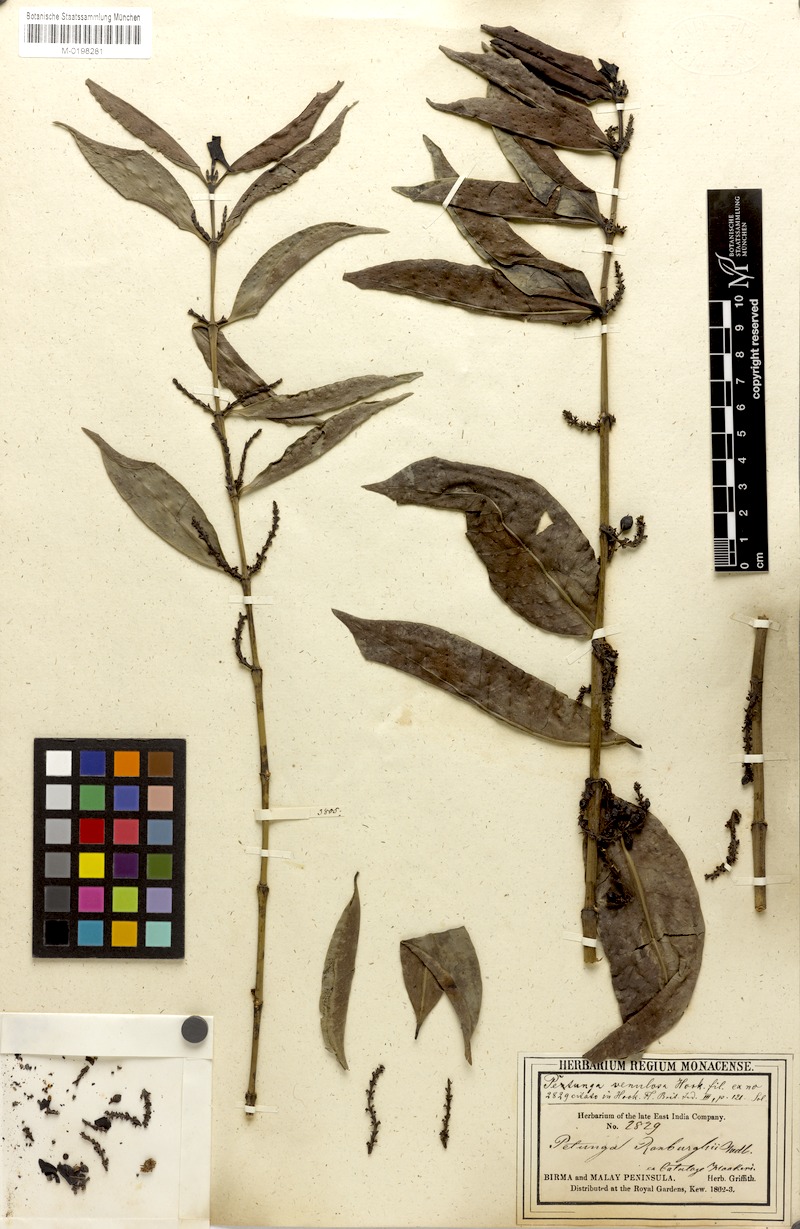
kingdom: Plantae
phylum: Tracheophyta
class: Magnoliopsida
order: Gentianales
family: Rubiaceae
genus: Hypobathrum
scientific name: Hypobathrum venulosum
